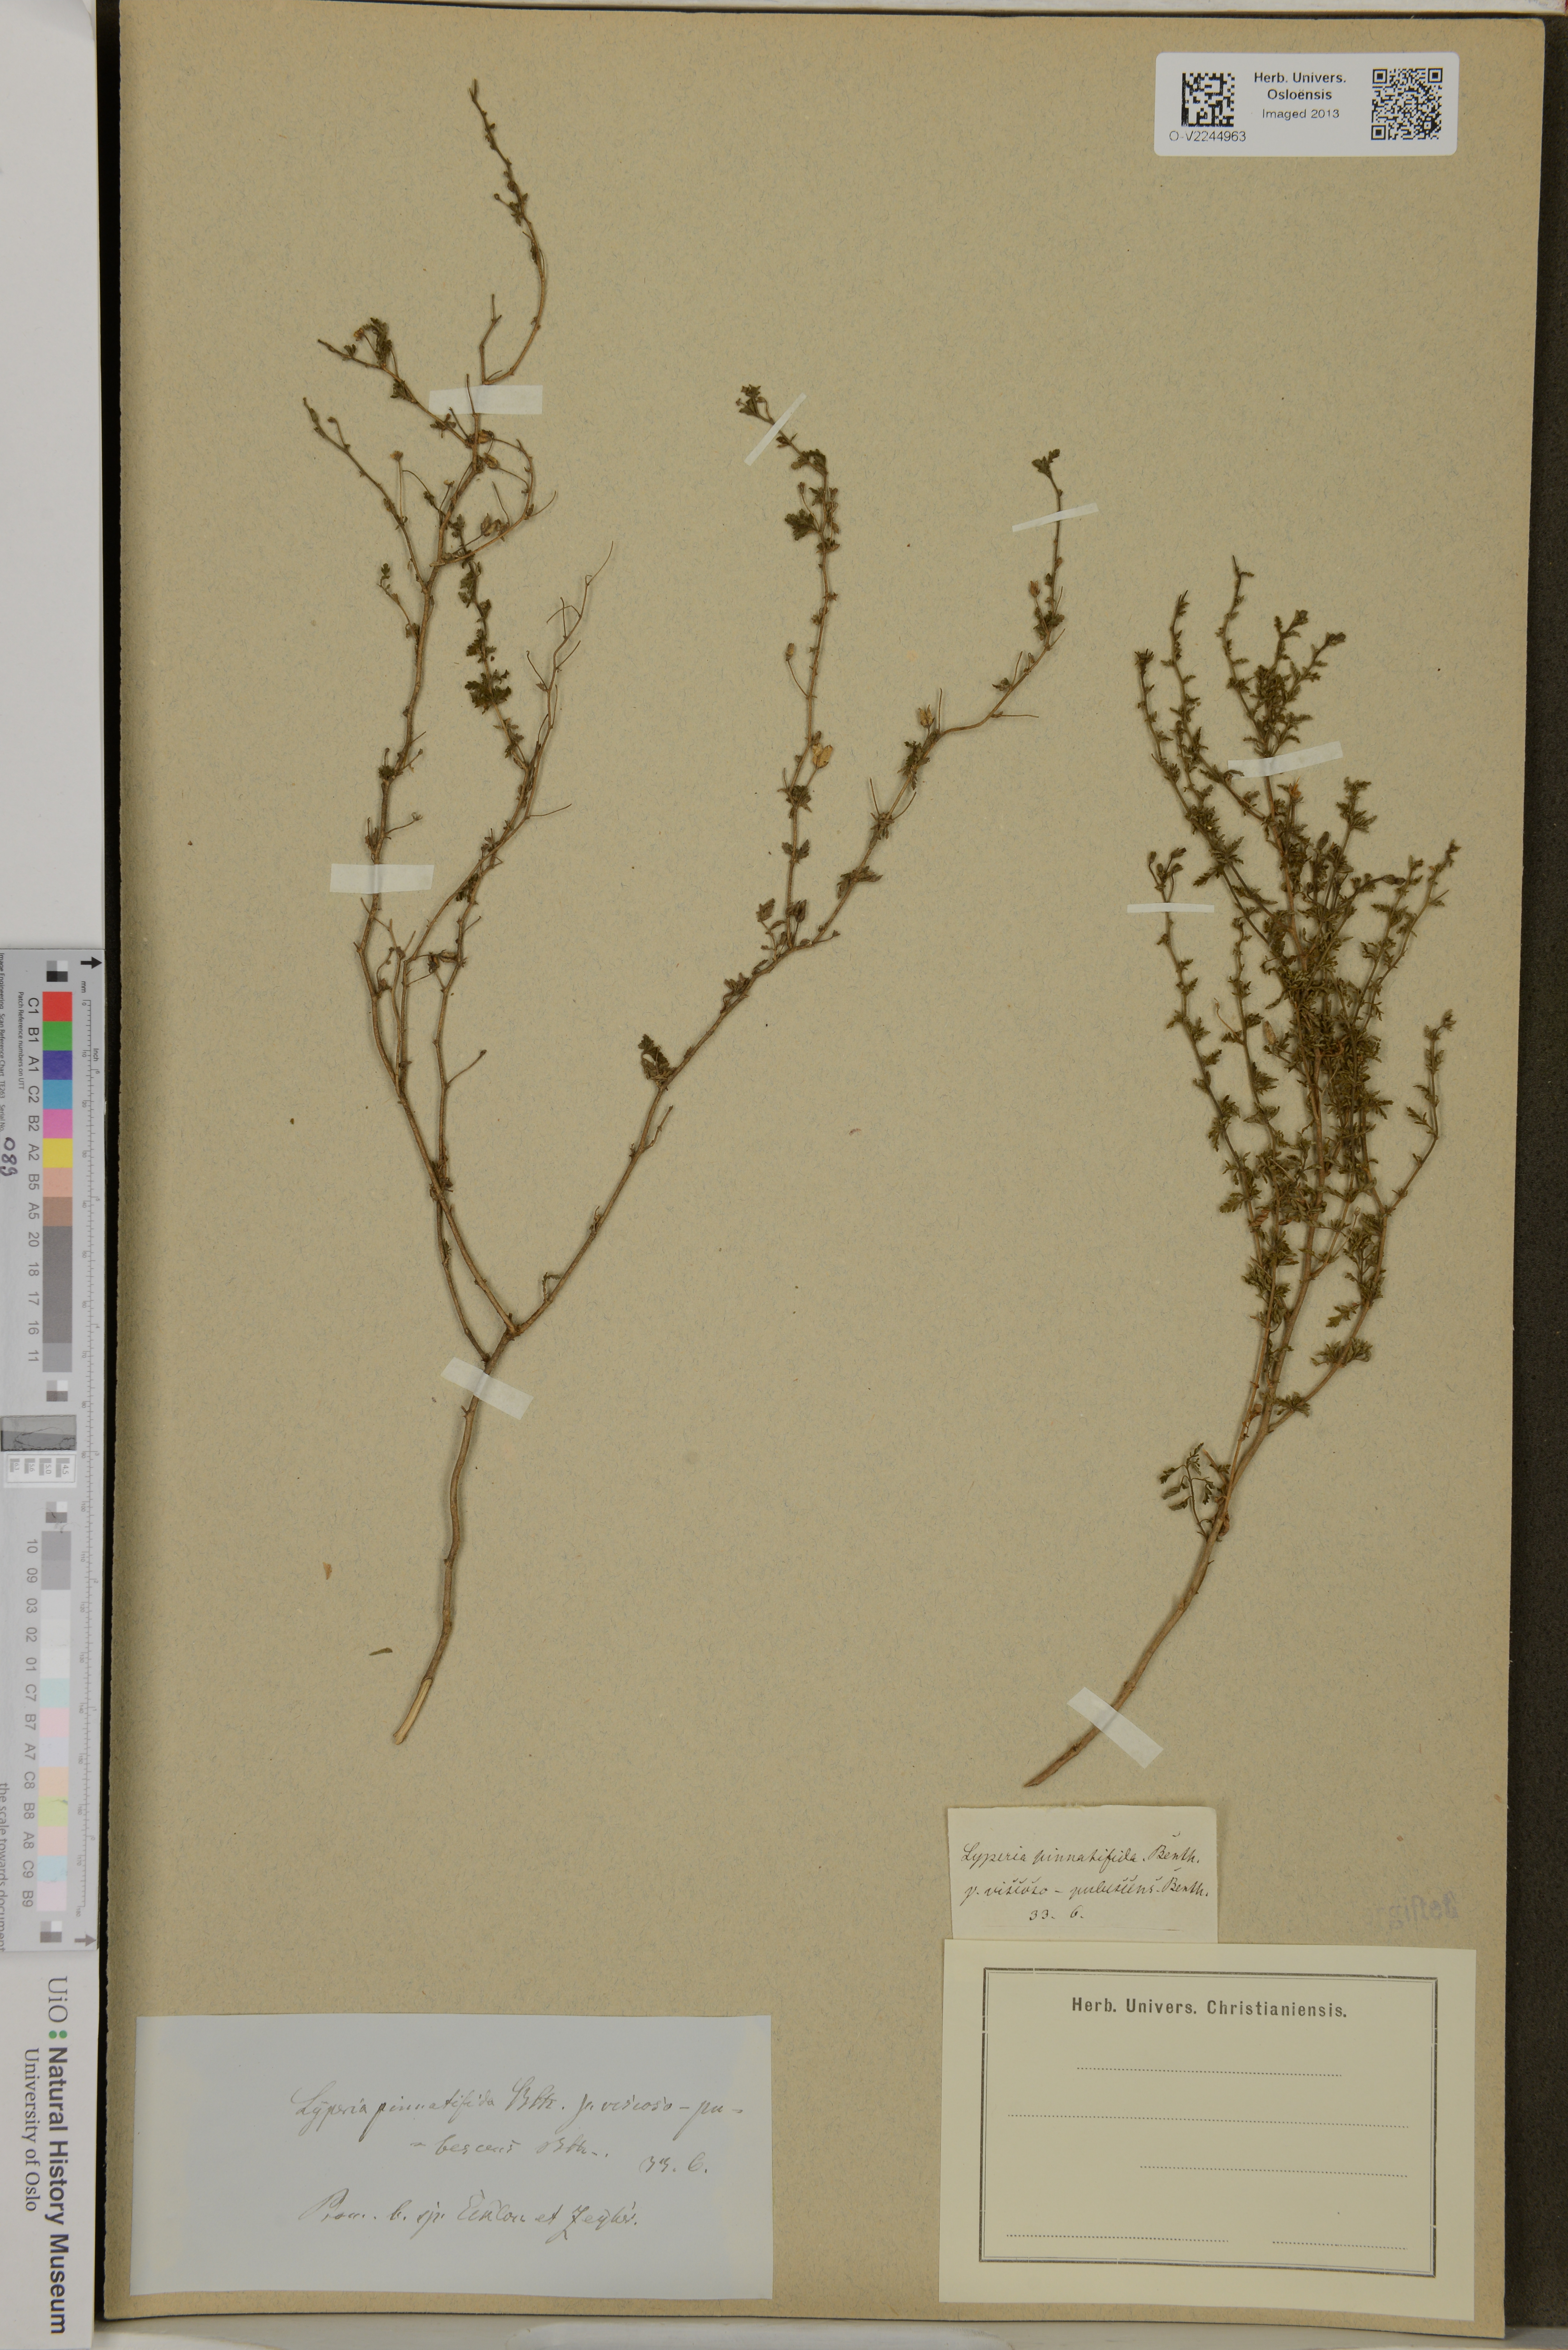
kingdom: Plantae
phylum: Tracheophyta
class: Magnoliopsida
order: Lamiales
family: Scrophulariaceae
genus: Jamesbrittenia
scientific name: Jamesbrittenia pinnatifida
